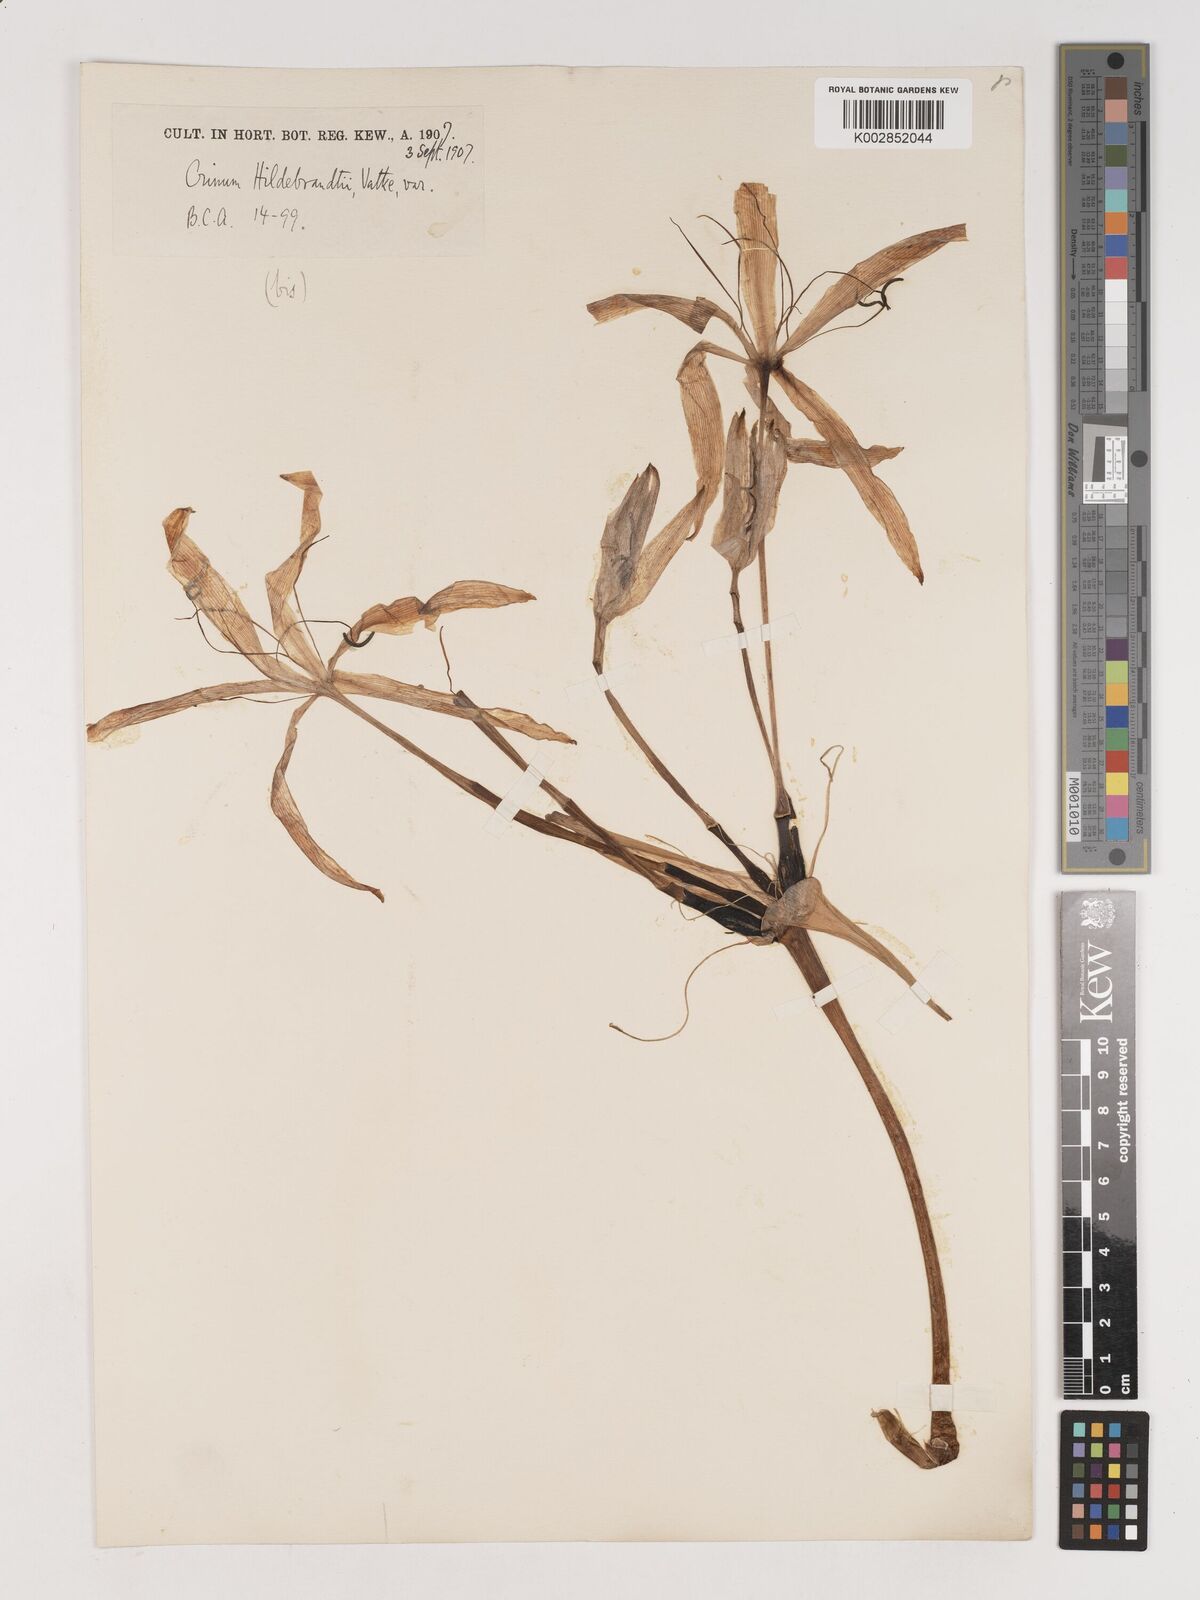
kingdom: Plantae
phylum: Tracheophyta
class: Liliopsida
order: Asparagales
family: Amaryllidaceae
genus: Crinum
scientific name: Crinum hildebrandtii
